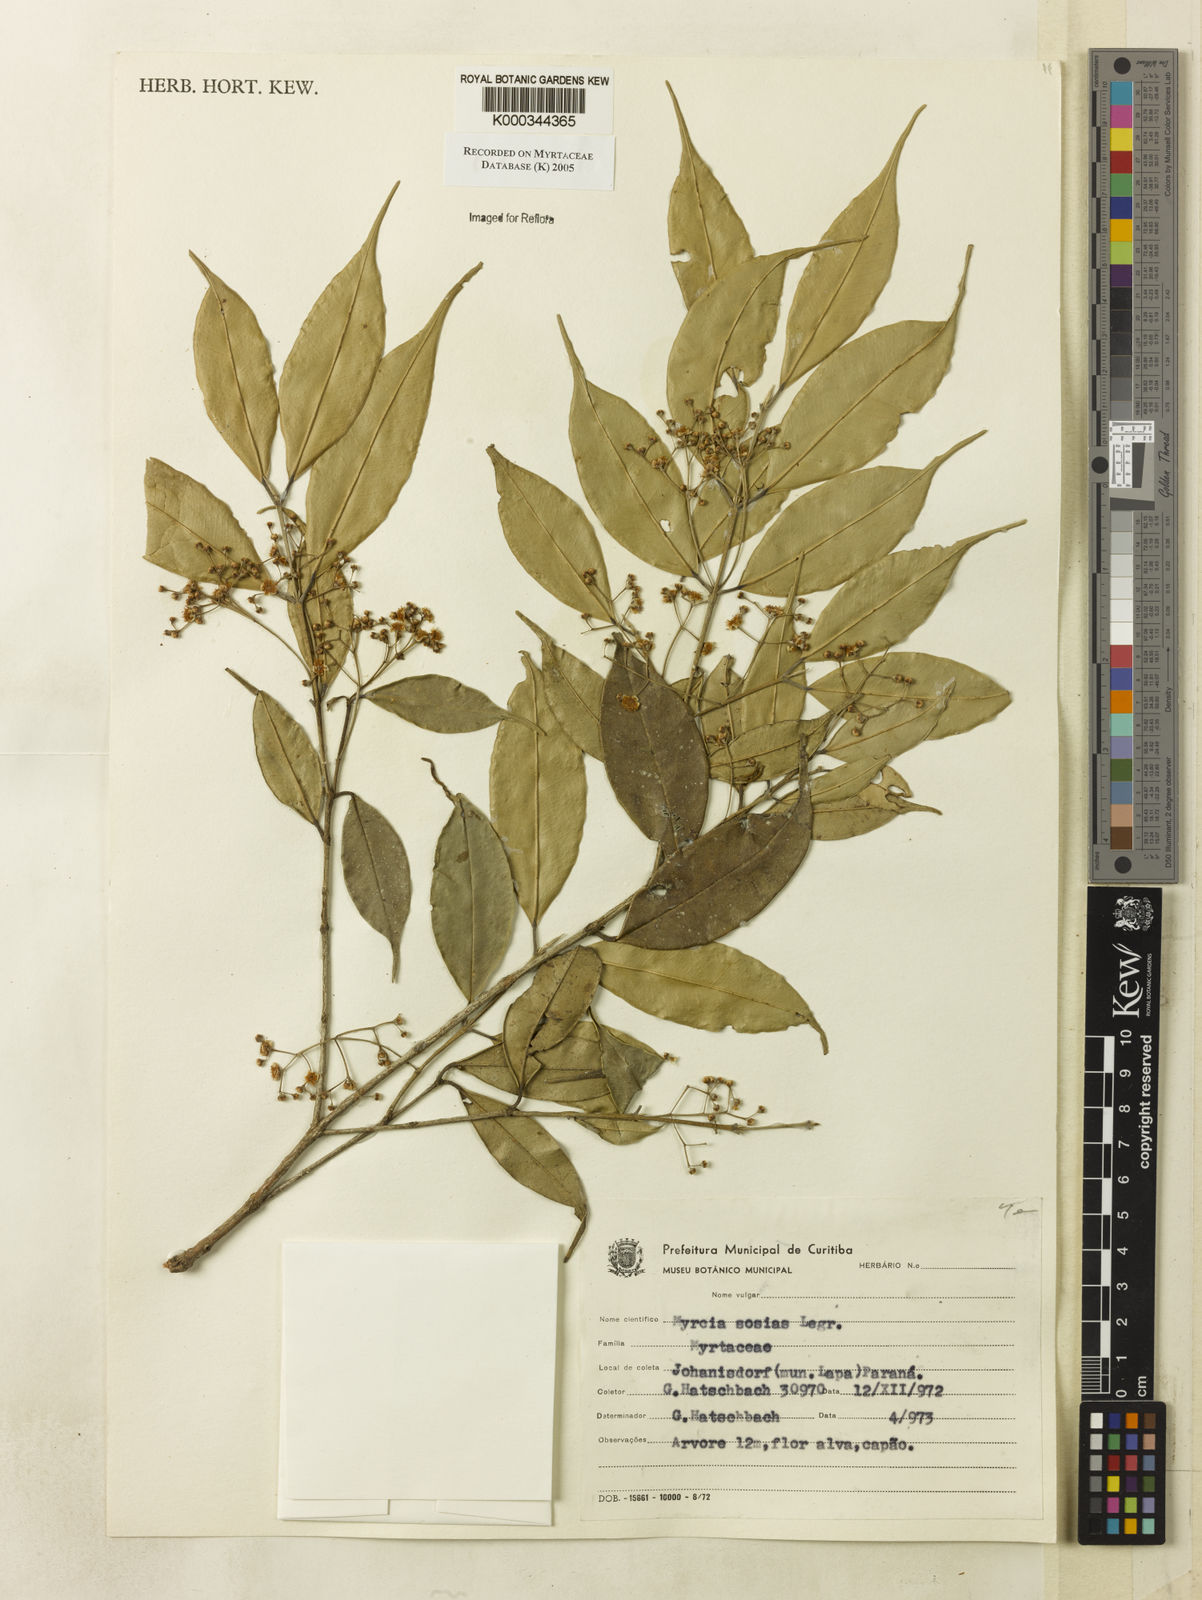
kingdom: Plantae
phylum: Tracheophyta
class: Magnoliopsida
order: Myrtales
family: Myrtaceae
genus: Myrcia
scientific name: Myrcia sosias
